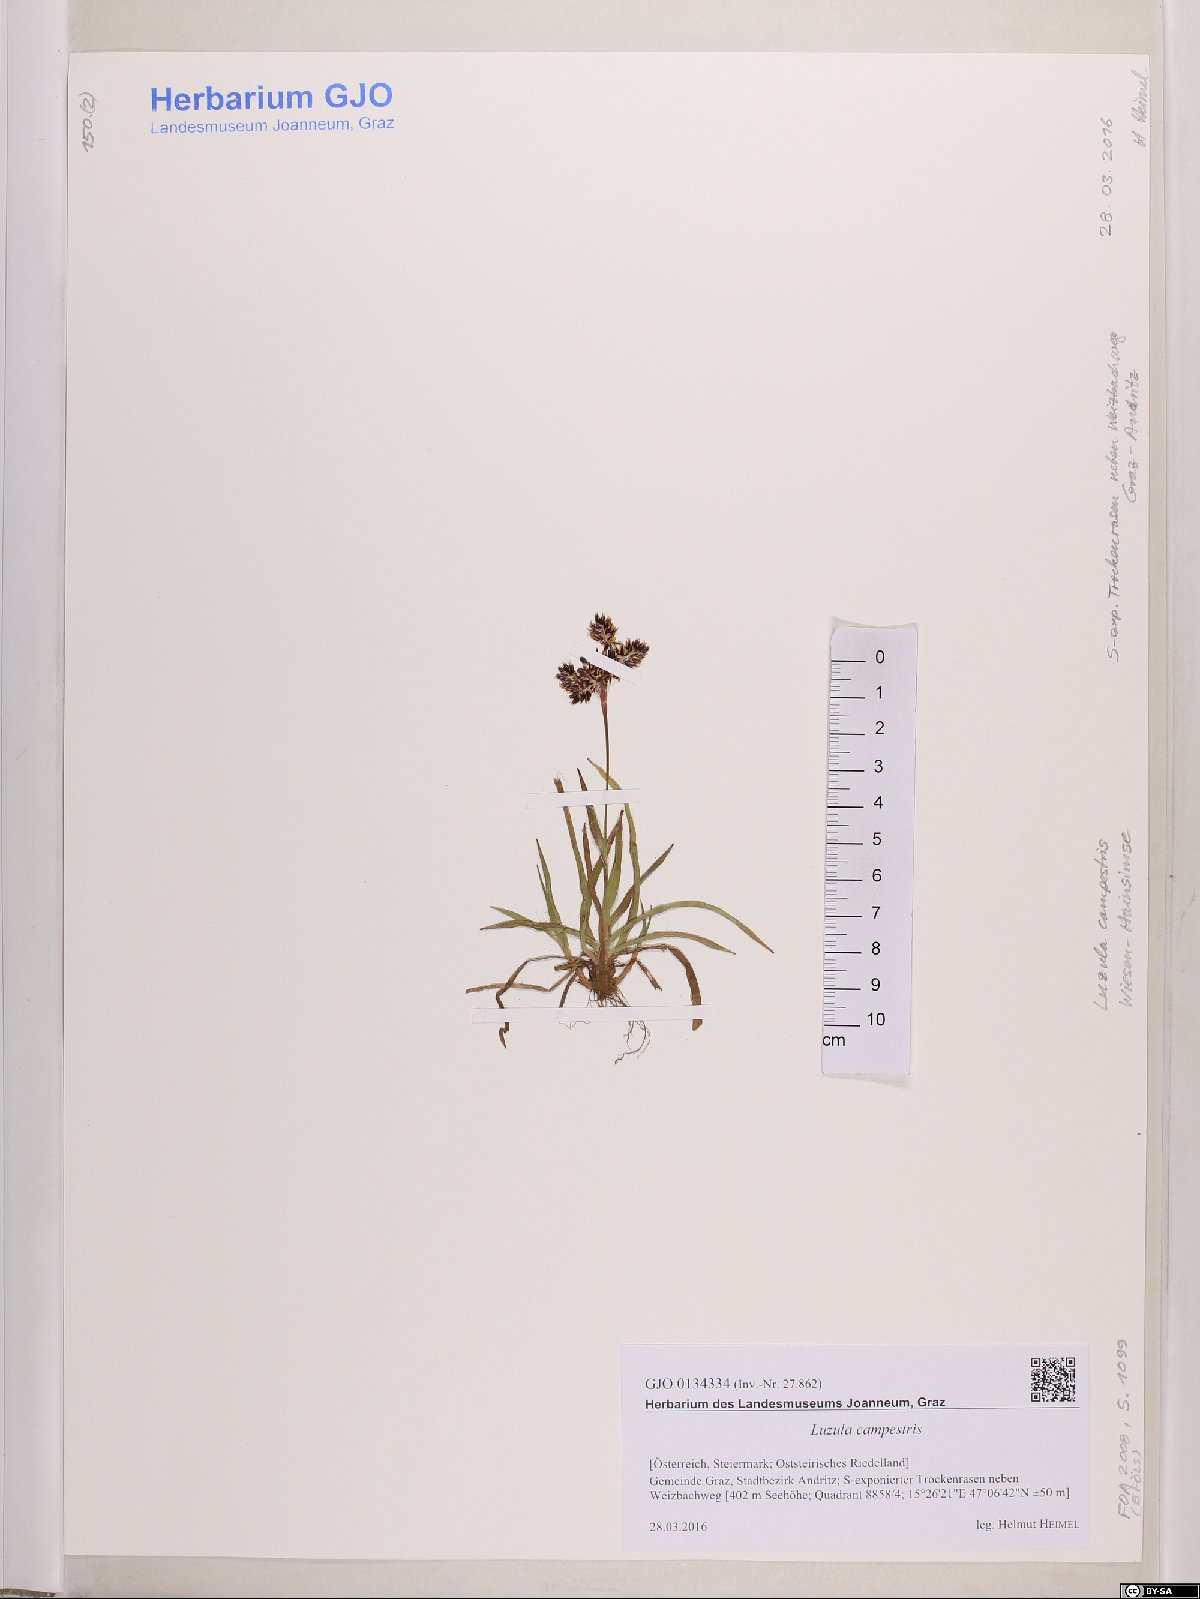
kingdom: Plantae
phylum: Tracheophyta
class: Liliopsida
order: Poales
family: Juncaceae
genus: Luzula
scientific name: Luzula campestris
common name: Field wood-rush
